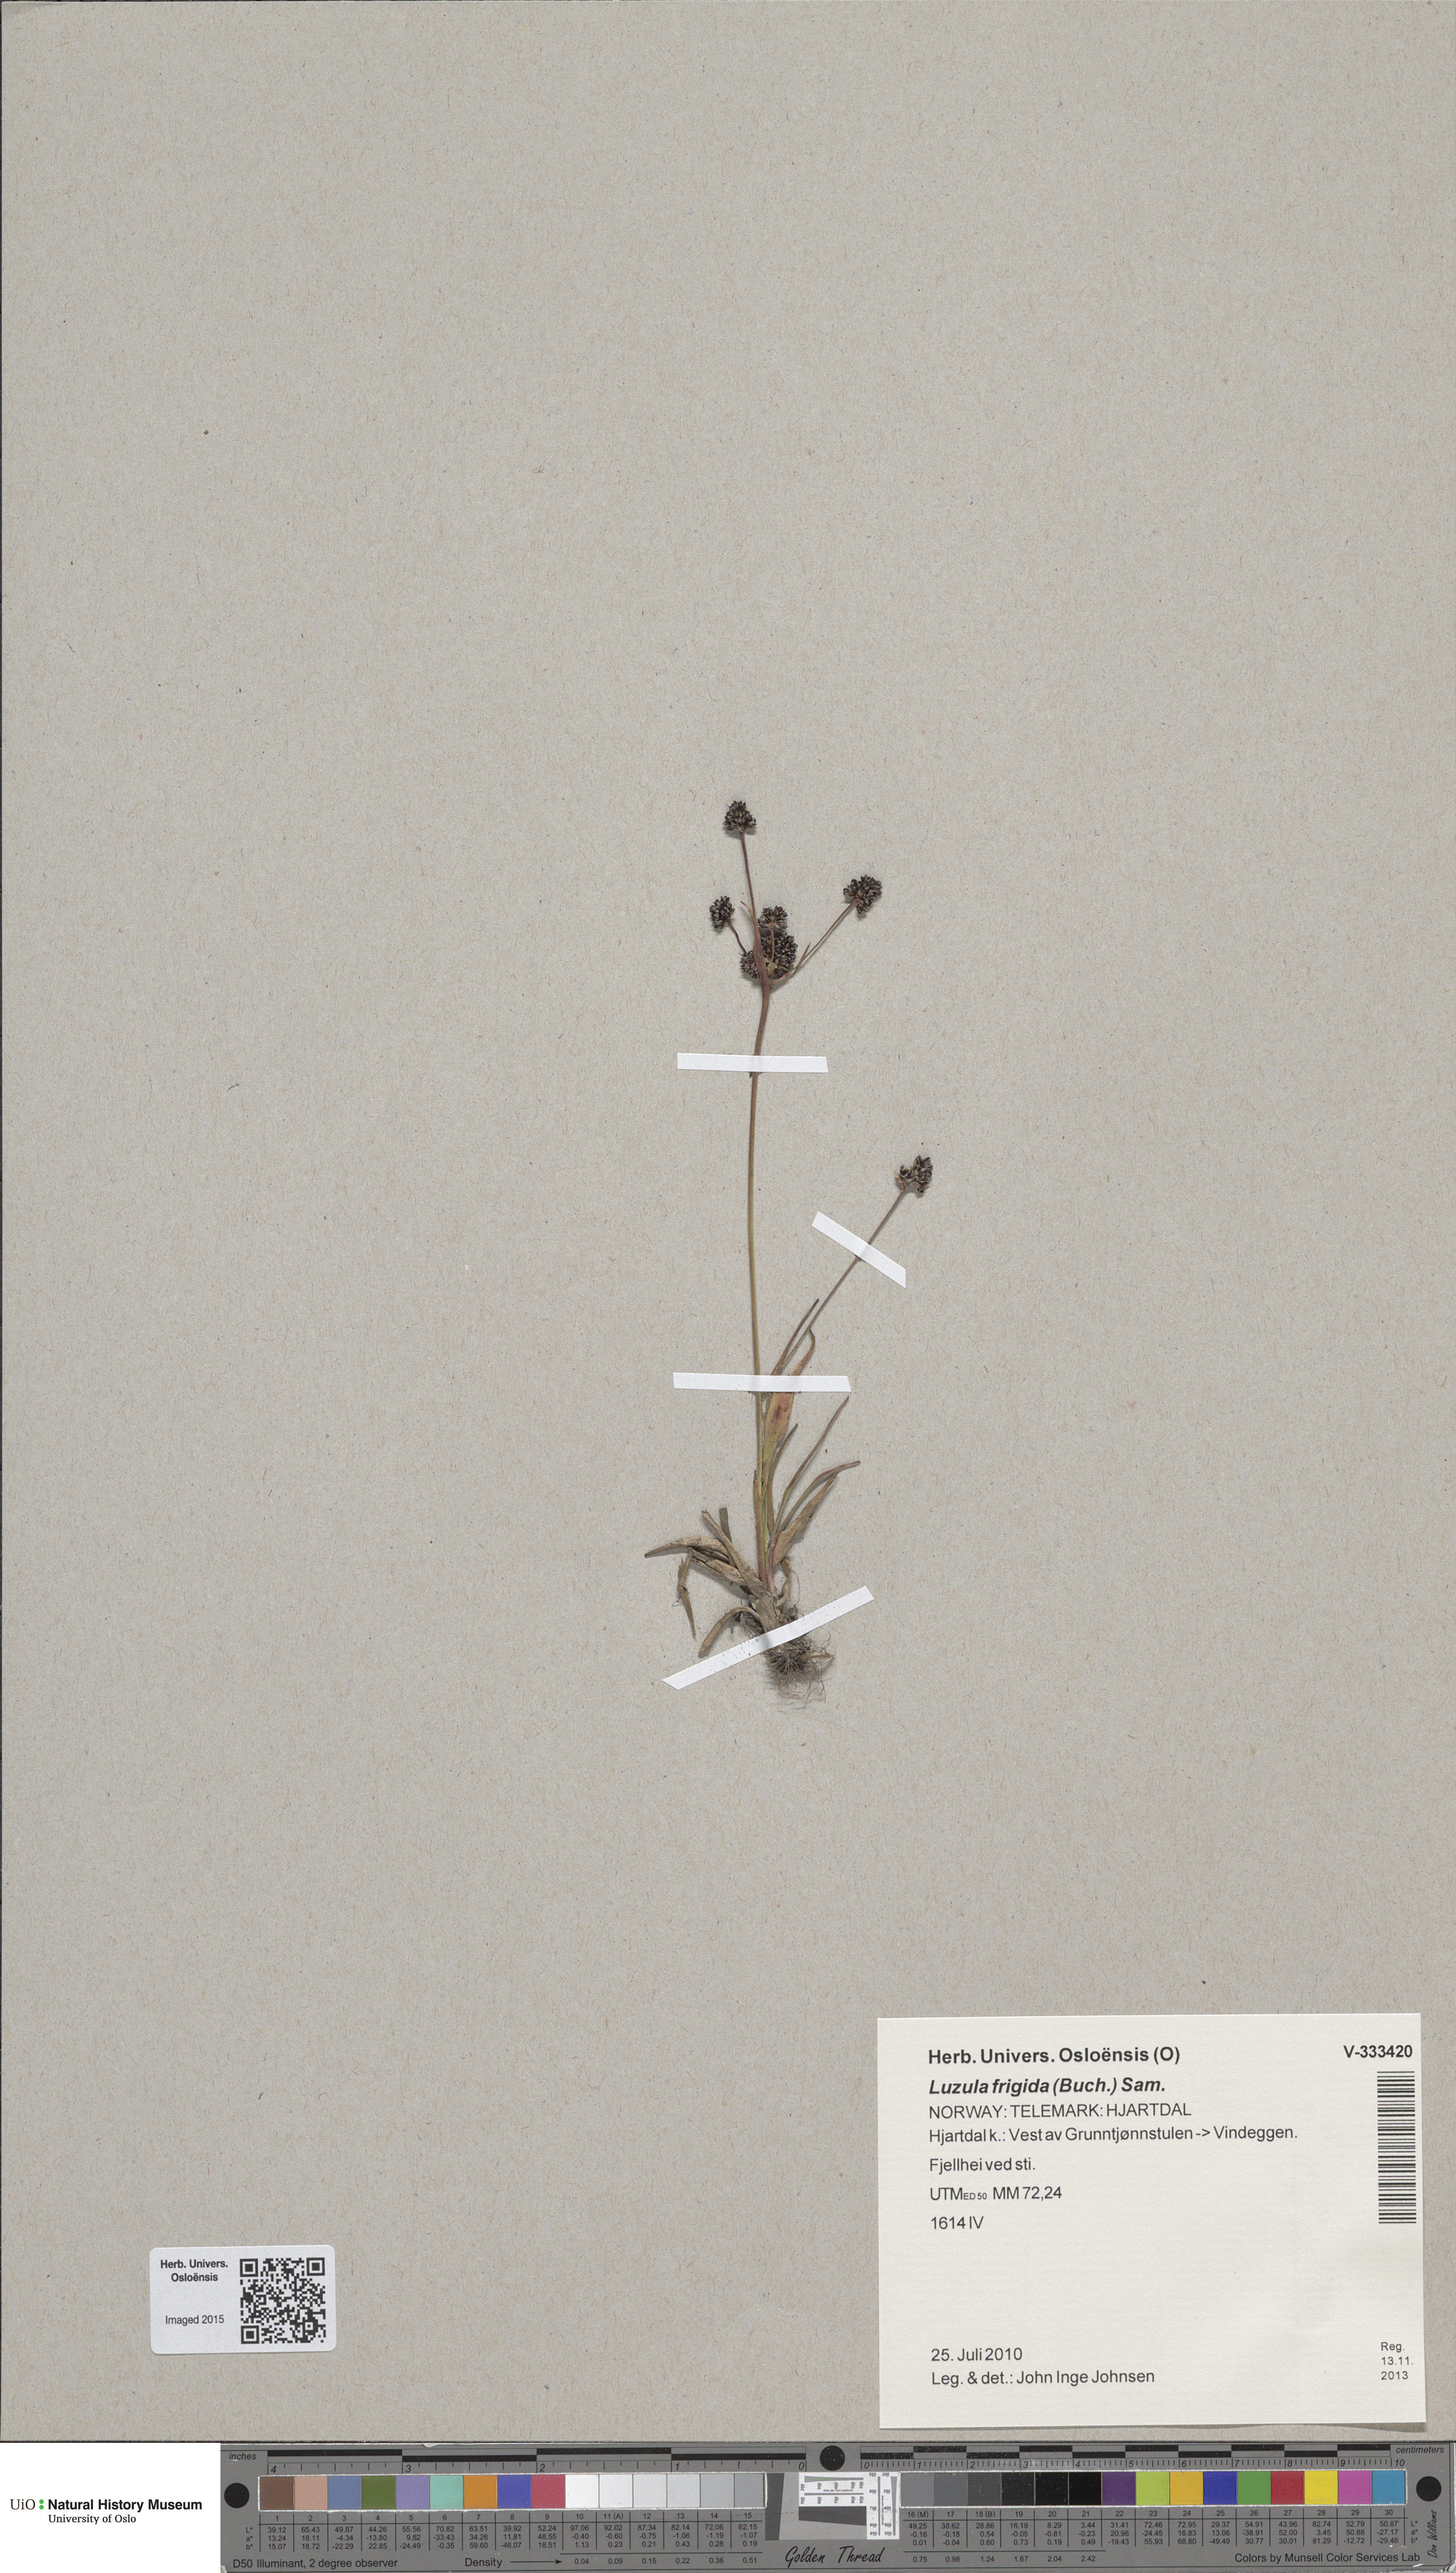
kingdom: Plantae
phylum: Tracheophyta
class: Liliopsida
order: Poales
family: Juncaceae
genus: Luzula
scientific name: Luzula multiflora
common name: Heath wood-rush
